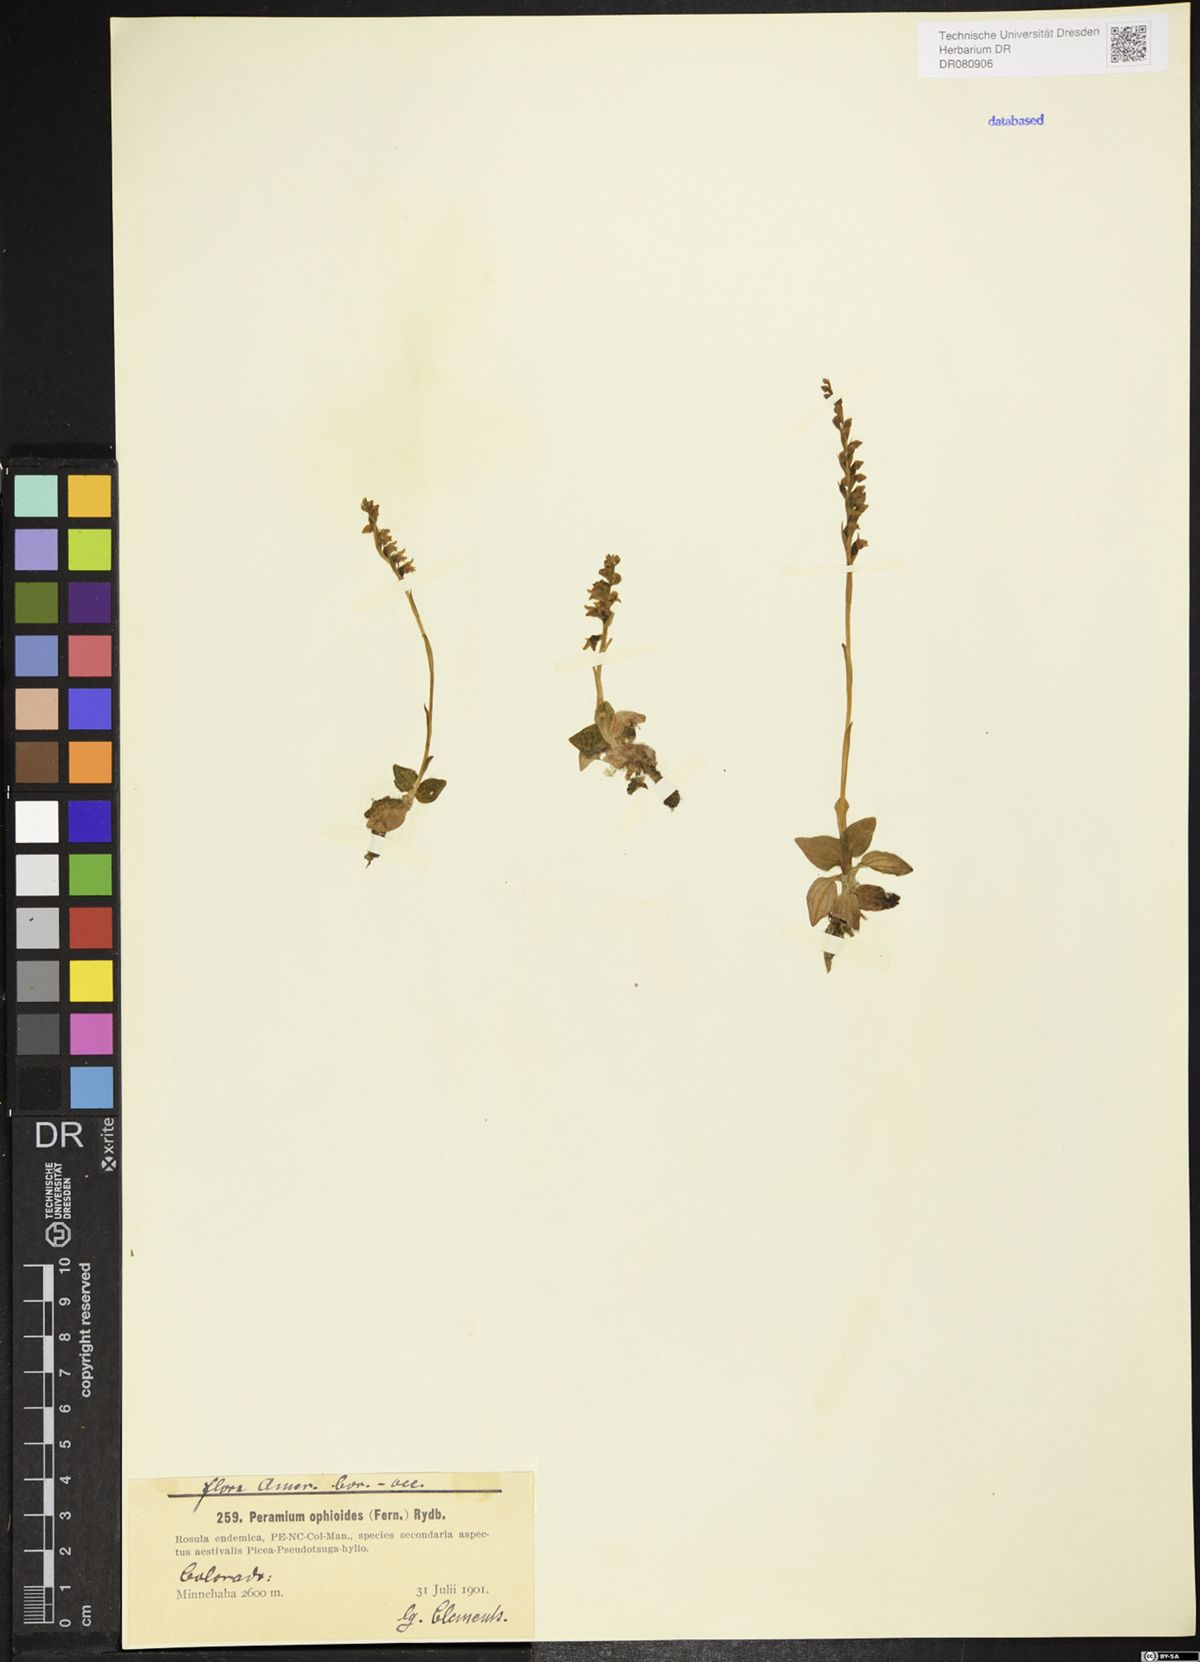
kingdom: Plantae
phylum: Tracheophyta
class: Liliopsida
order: Asparagales
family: Orchidaceae
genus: Goodyera
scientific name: Goodyera Peramium ophioides
